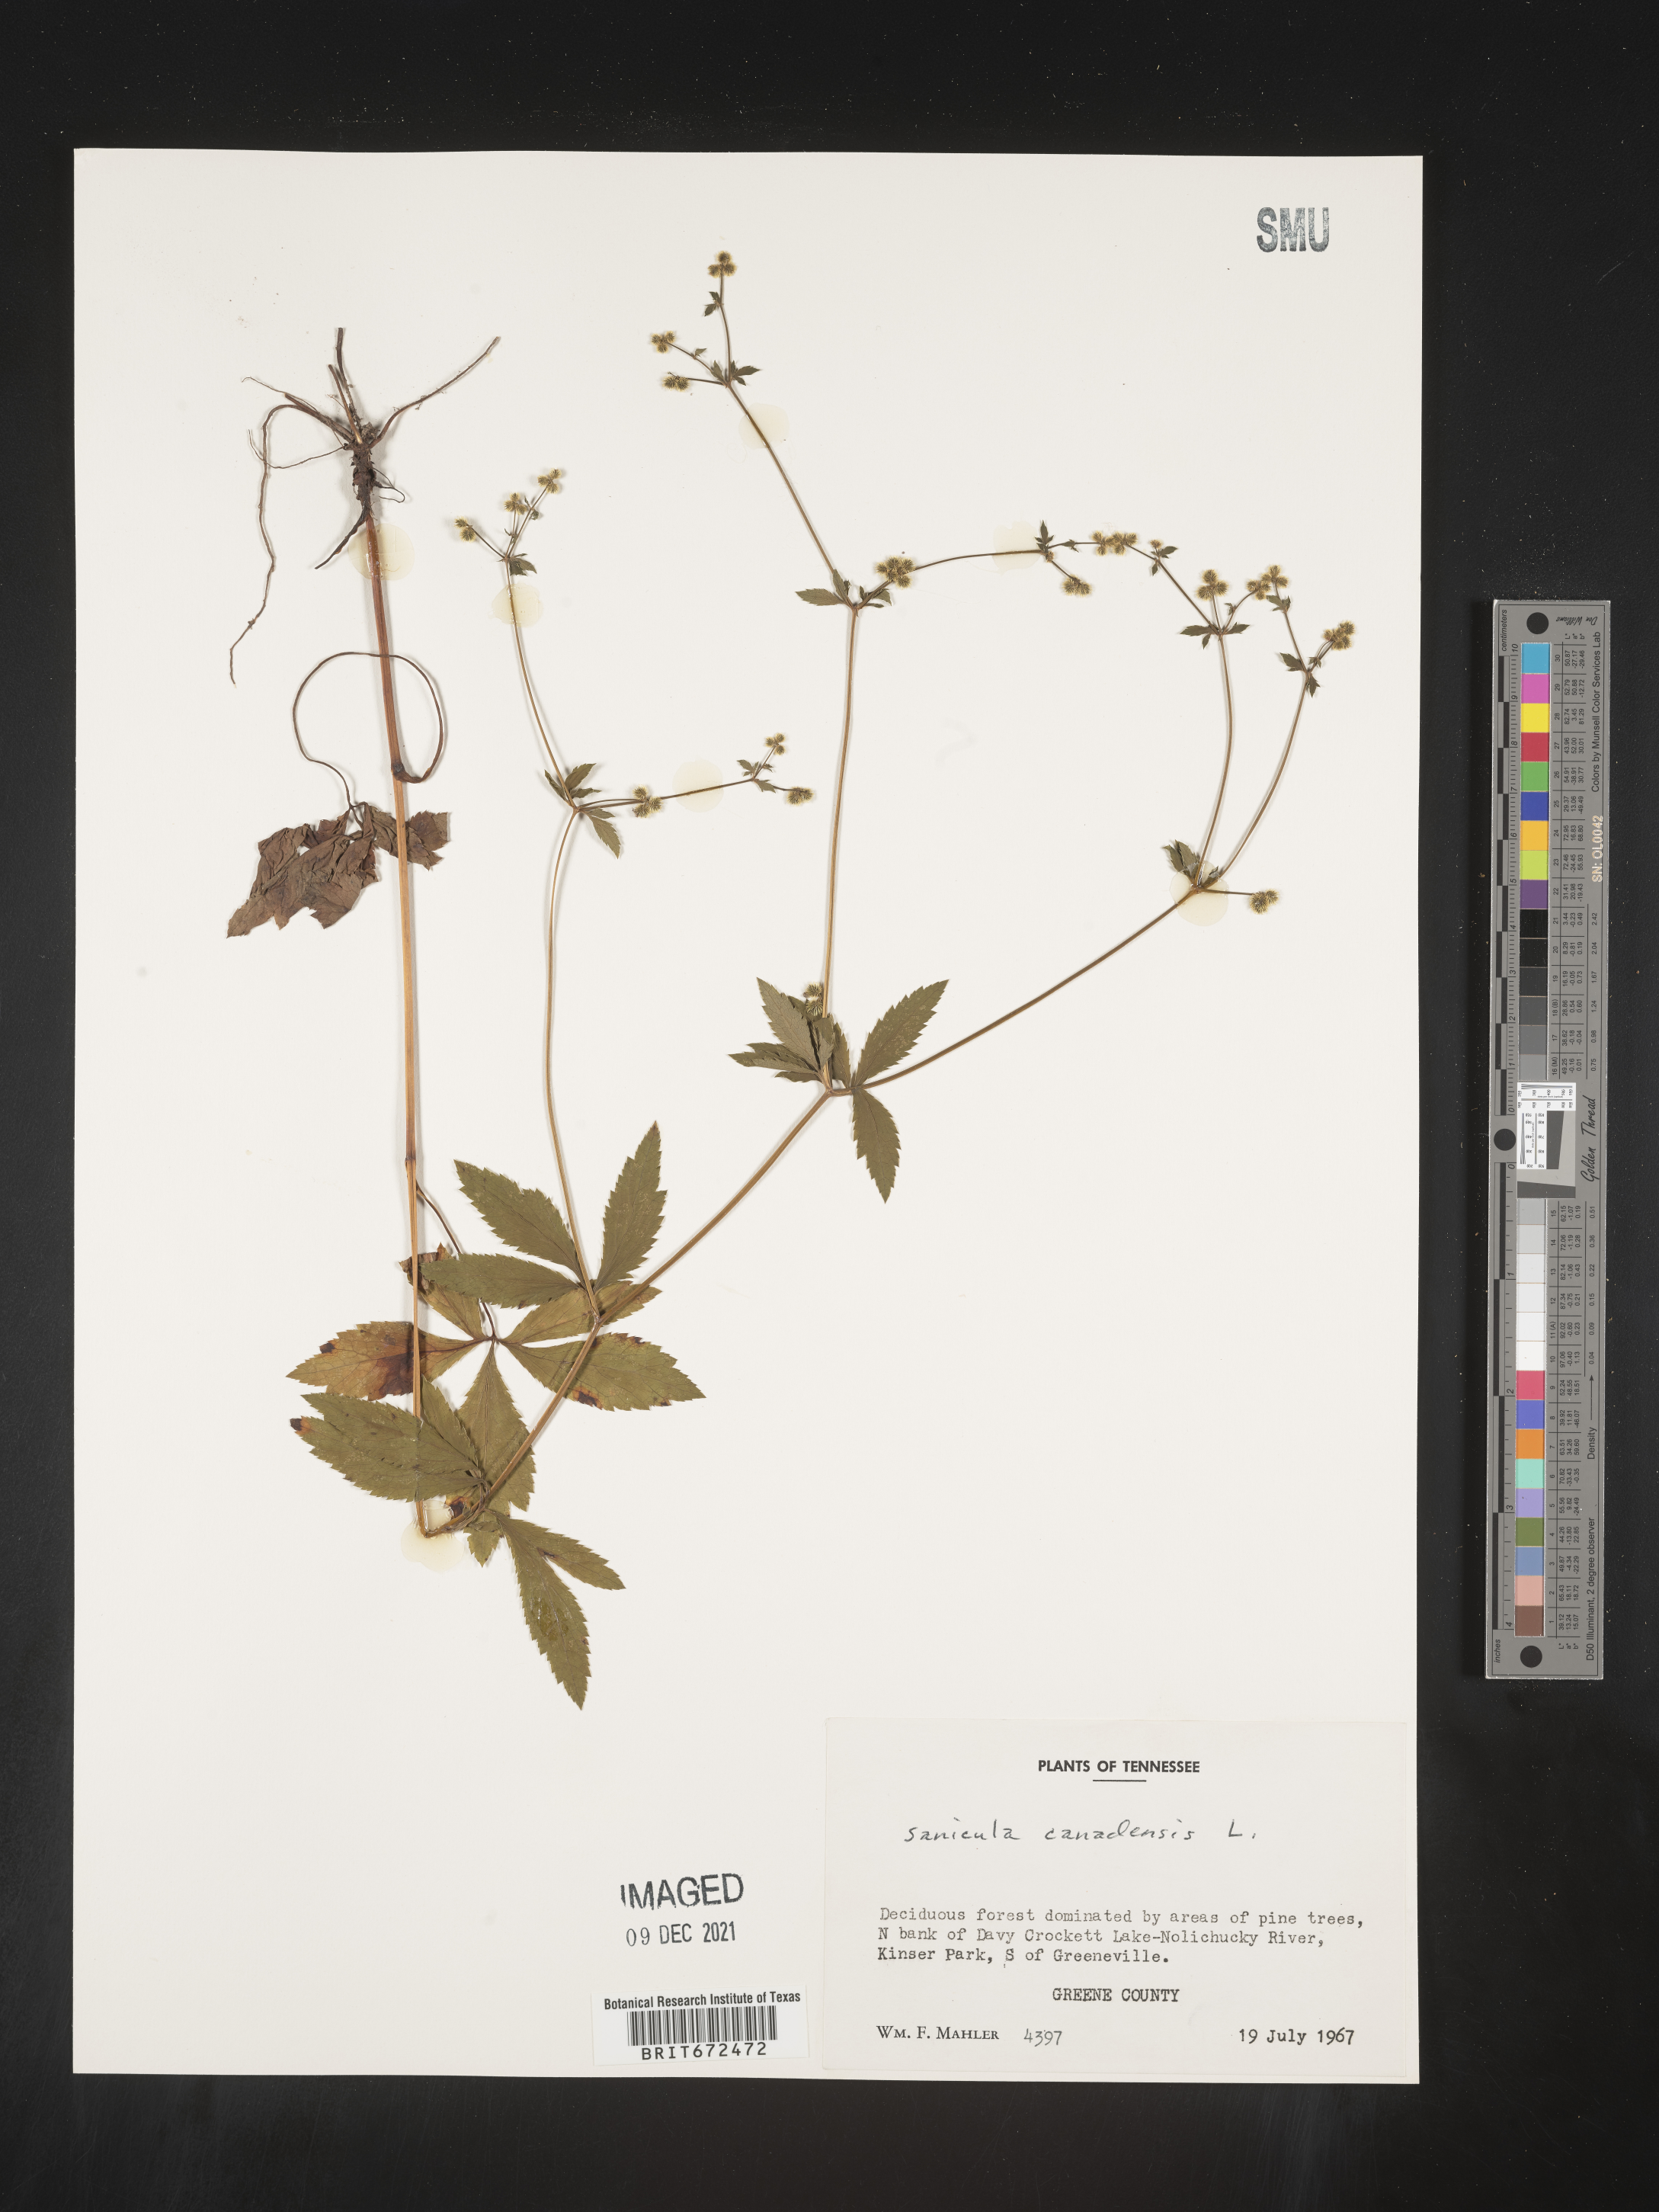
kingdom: Plantae
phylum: Tracheophyta
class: Magnoliopsida
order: Apiales
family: Apiaceae
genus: Sanicula
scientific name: Sanicula canadensis
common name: Canada sanicle
